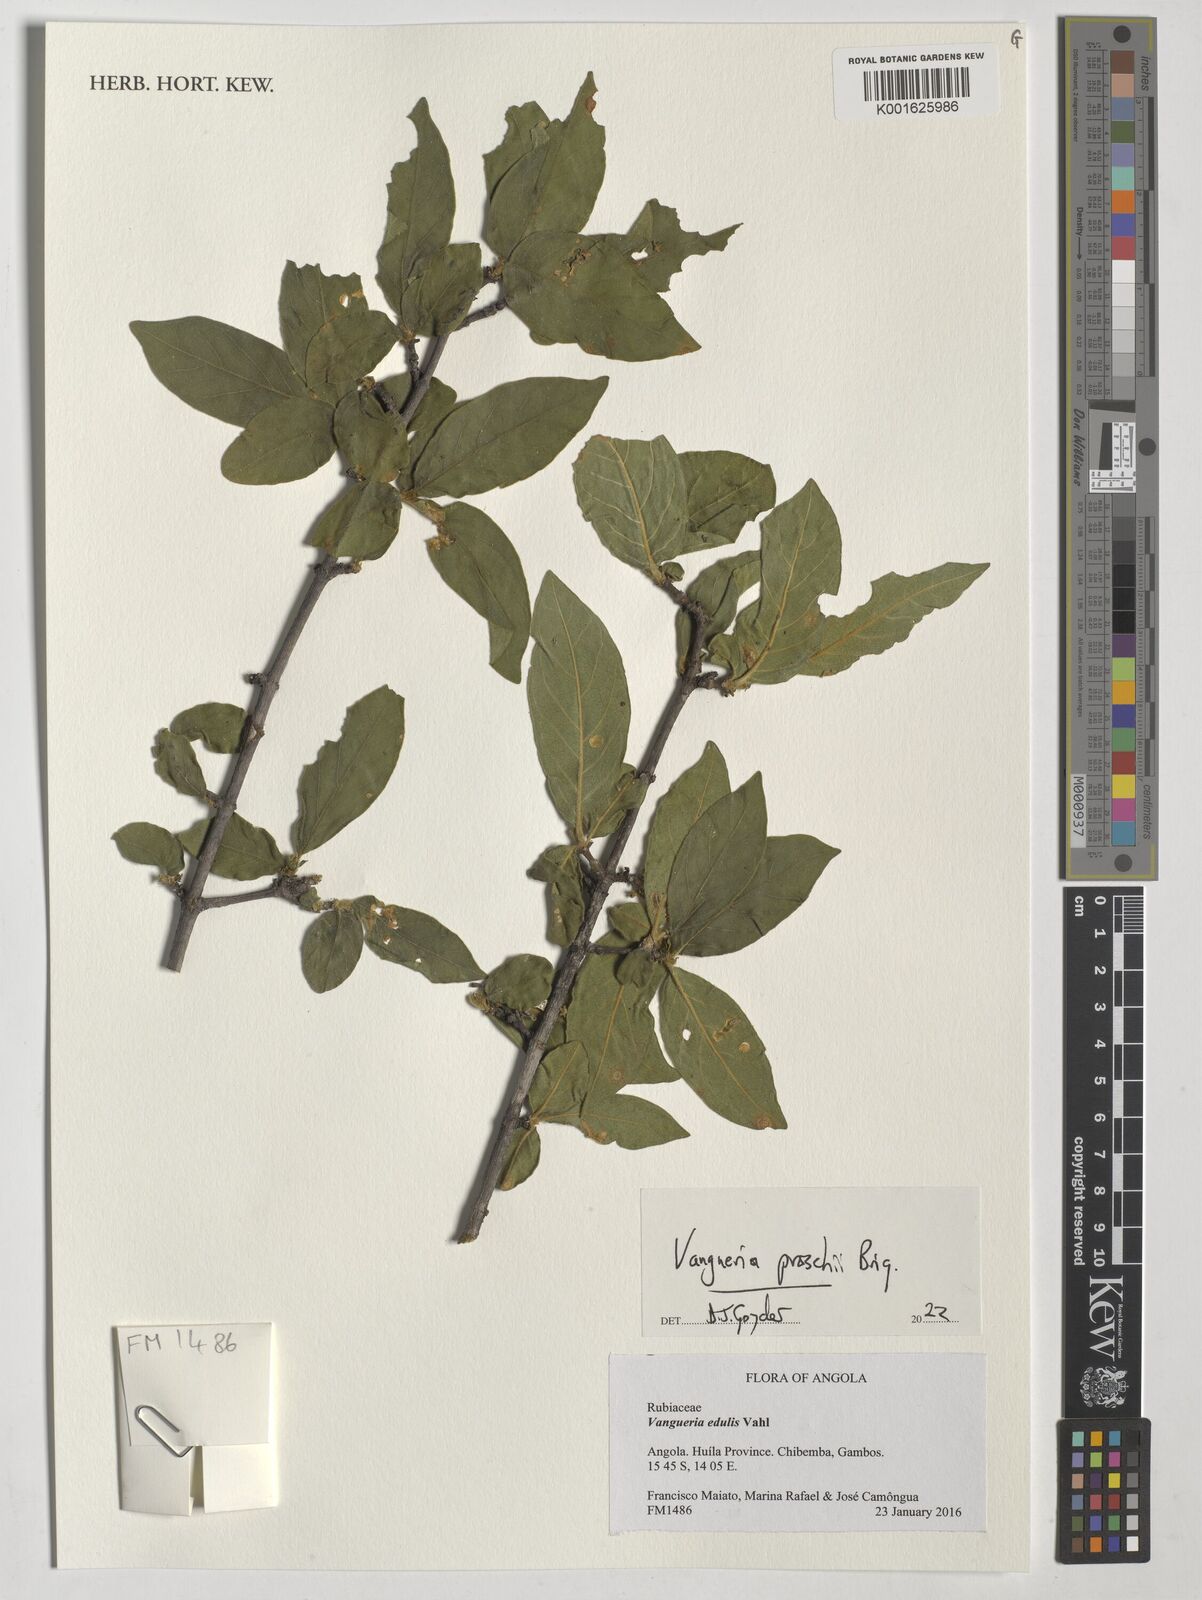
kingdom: Plantae
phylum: Tracheophyta
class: Magnoliopsida
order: Gentianales
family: Rubiaceae
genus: Vangueria
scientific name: Vangueria proschii
